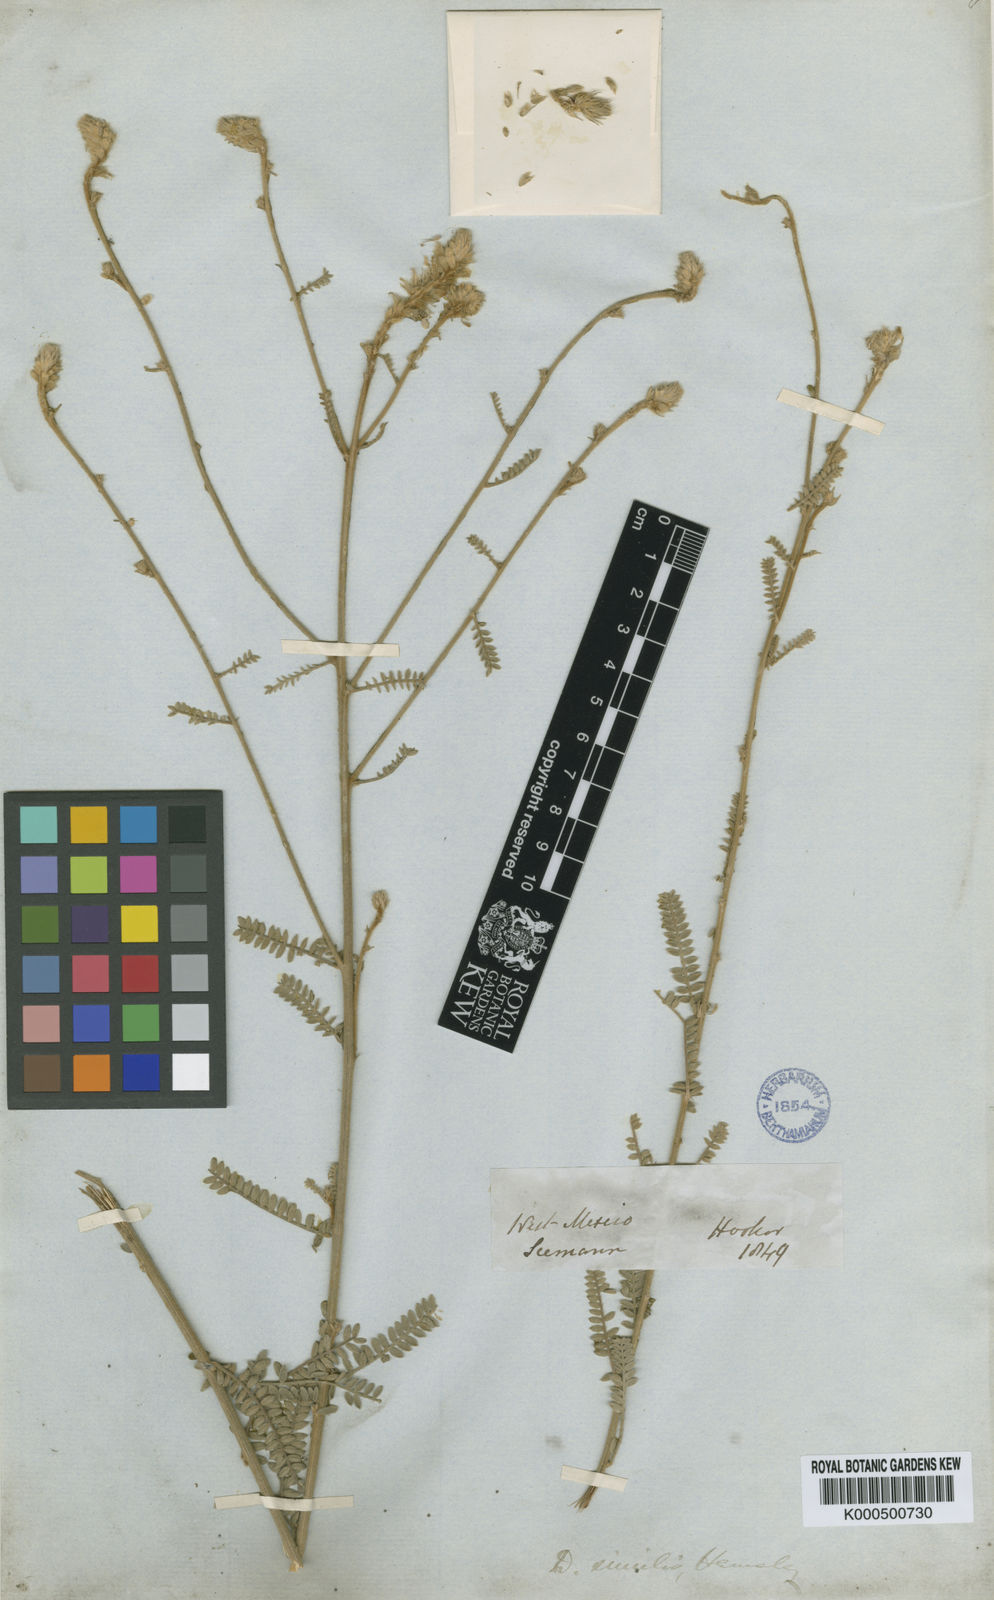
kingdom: Plantae
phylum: Tracheophyta
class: Magnoliopsida
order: Fabales
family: Fabaceae
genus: Dalea
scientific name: Dalea similis
